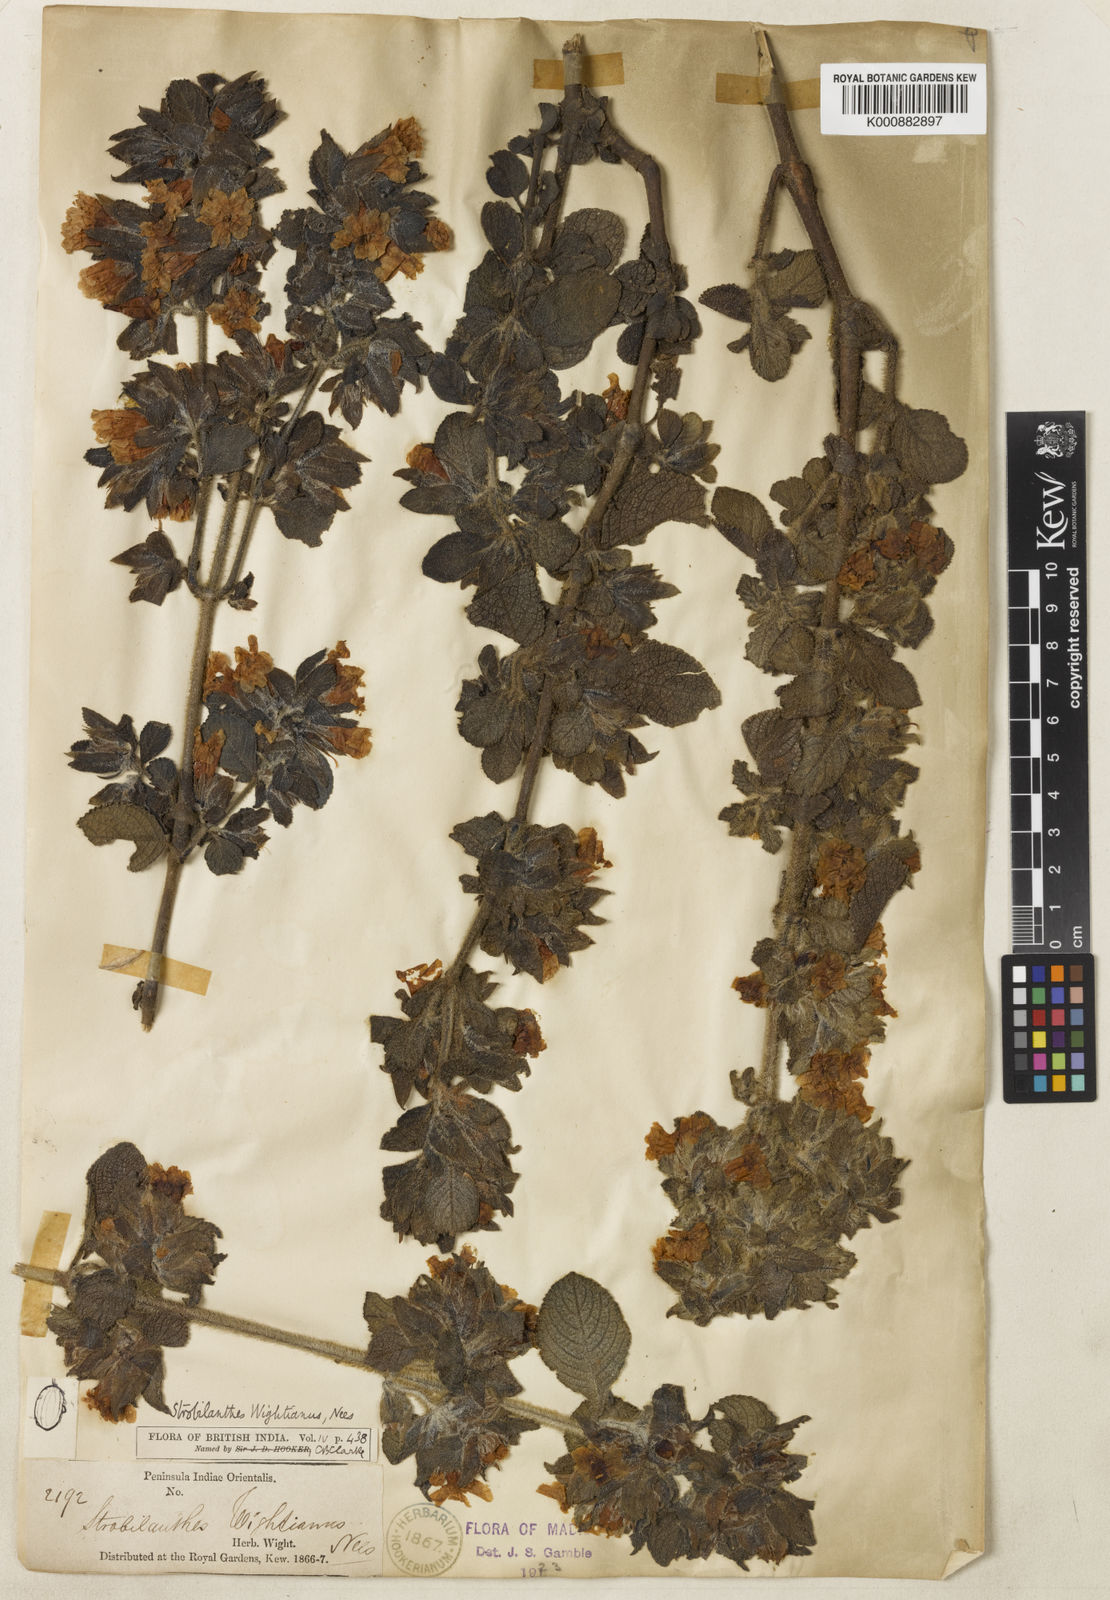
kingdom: Plantae
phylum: Tracheophyta
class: Magnoliopsida
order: Lamiales
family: Acanthaceae
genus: Strobilanthes
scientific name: Strobilanthes wightiana
